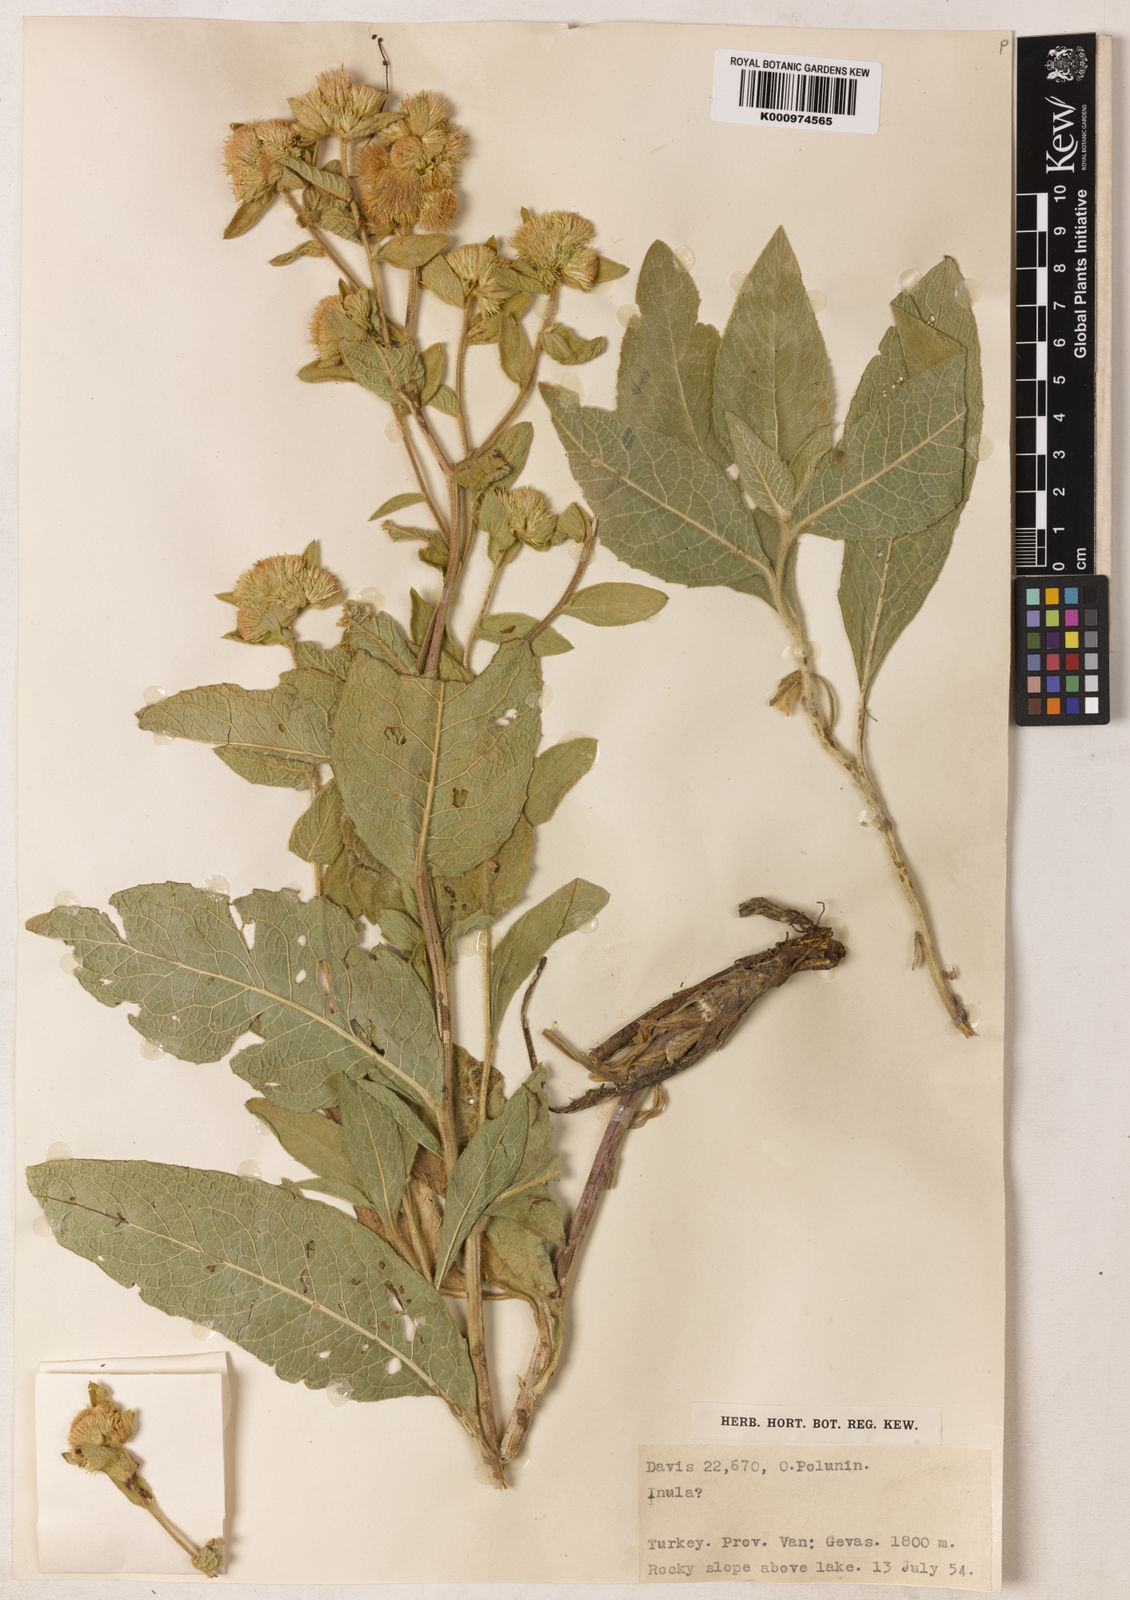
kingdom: Plantae
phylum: Tracheophyta
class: Magnoliopsida
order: Asterales
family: Asteraceae
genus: Inula
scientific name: Inula thapsoides
